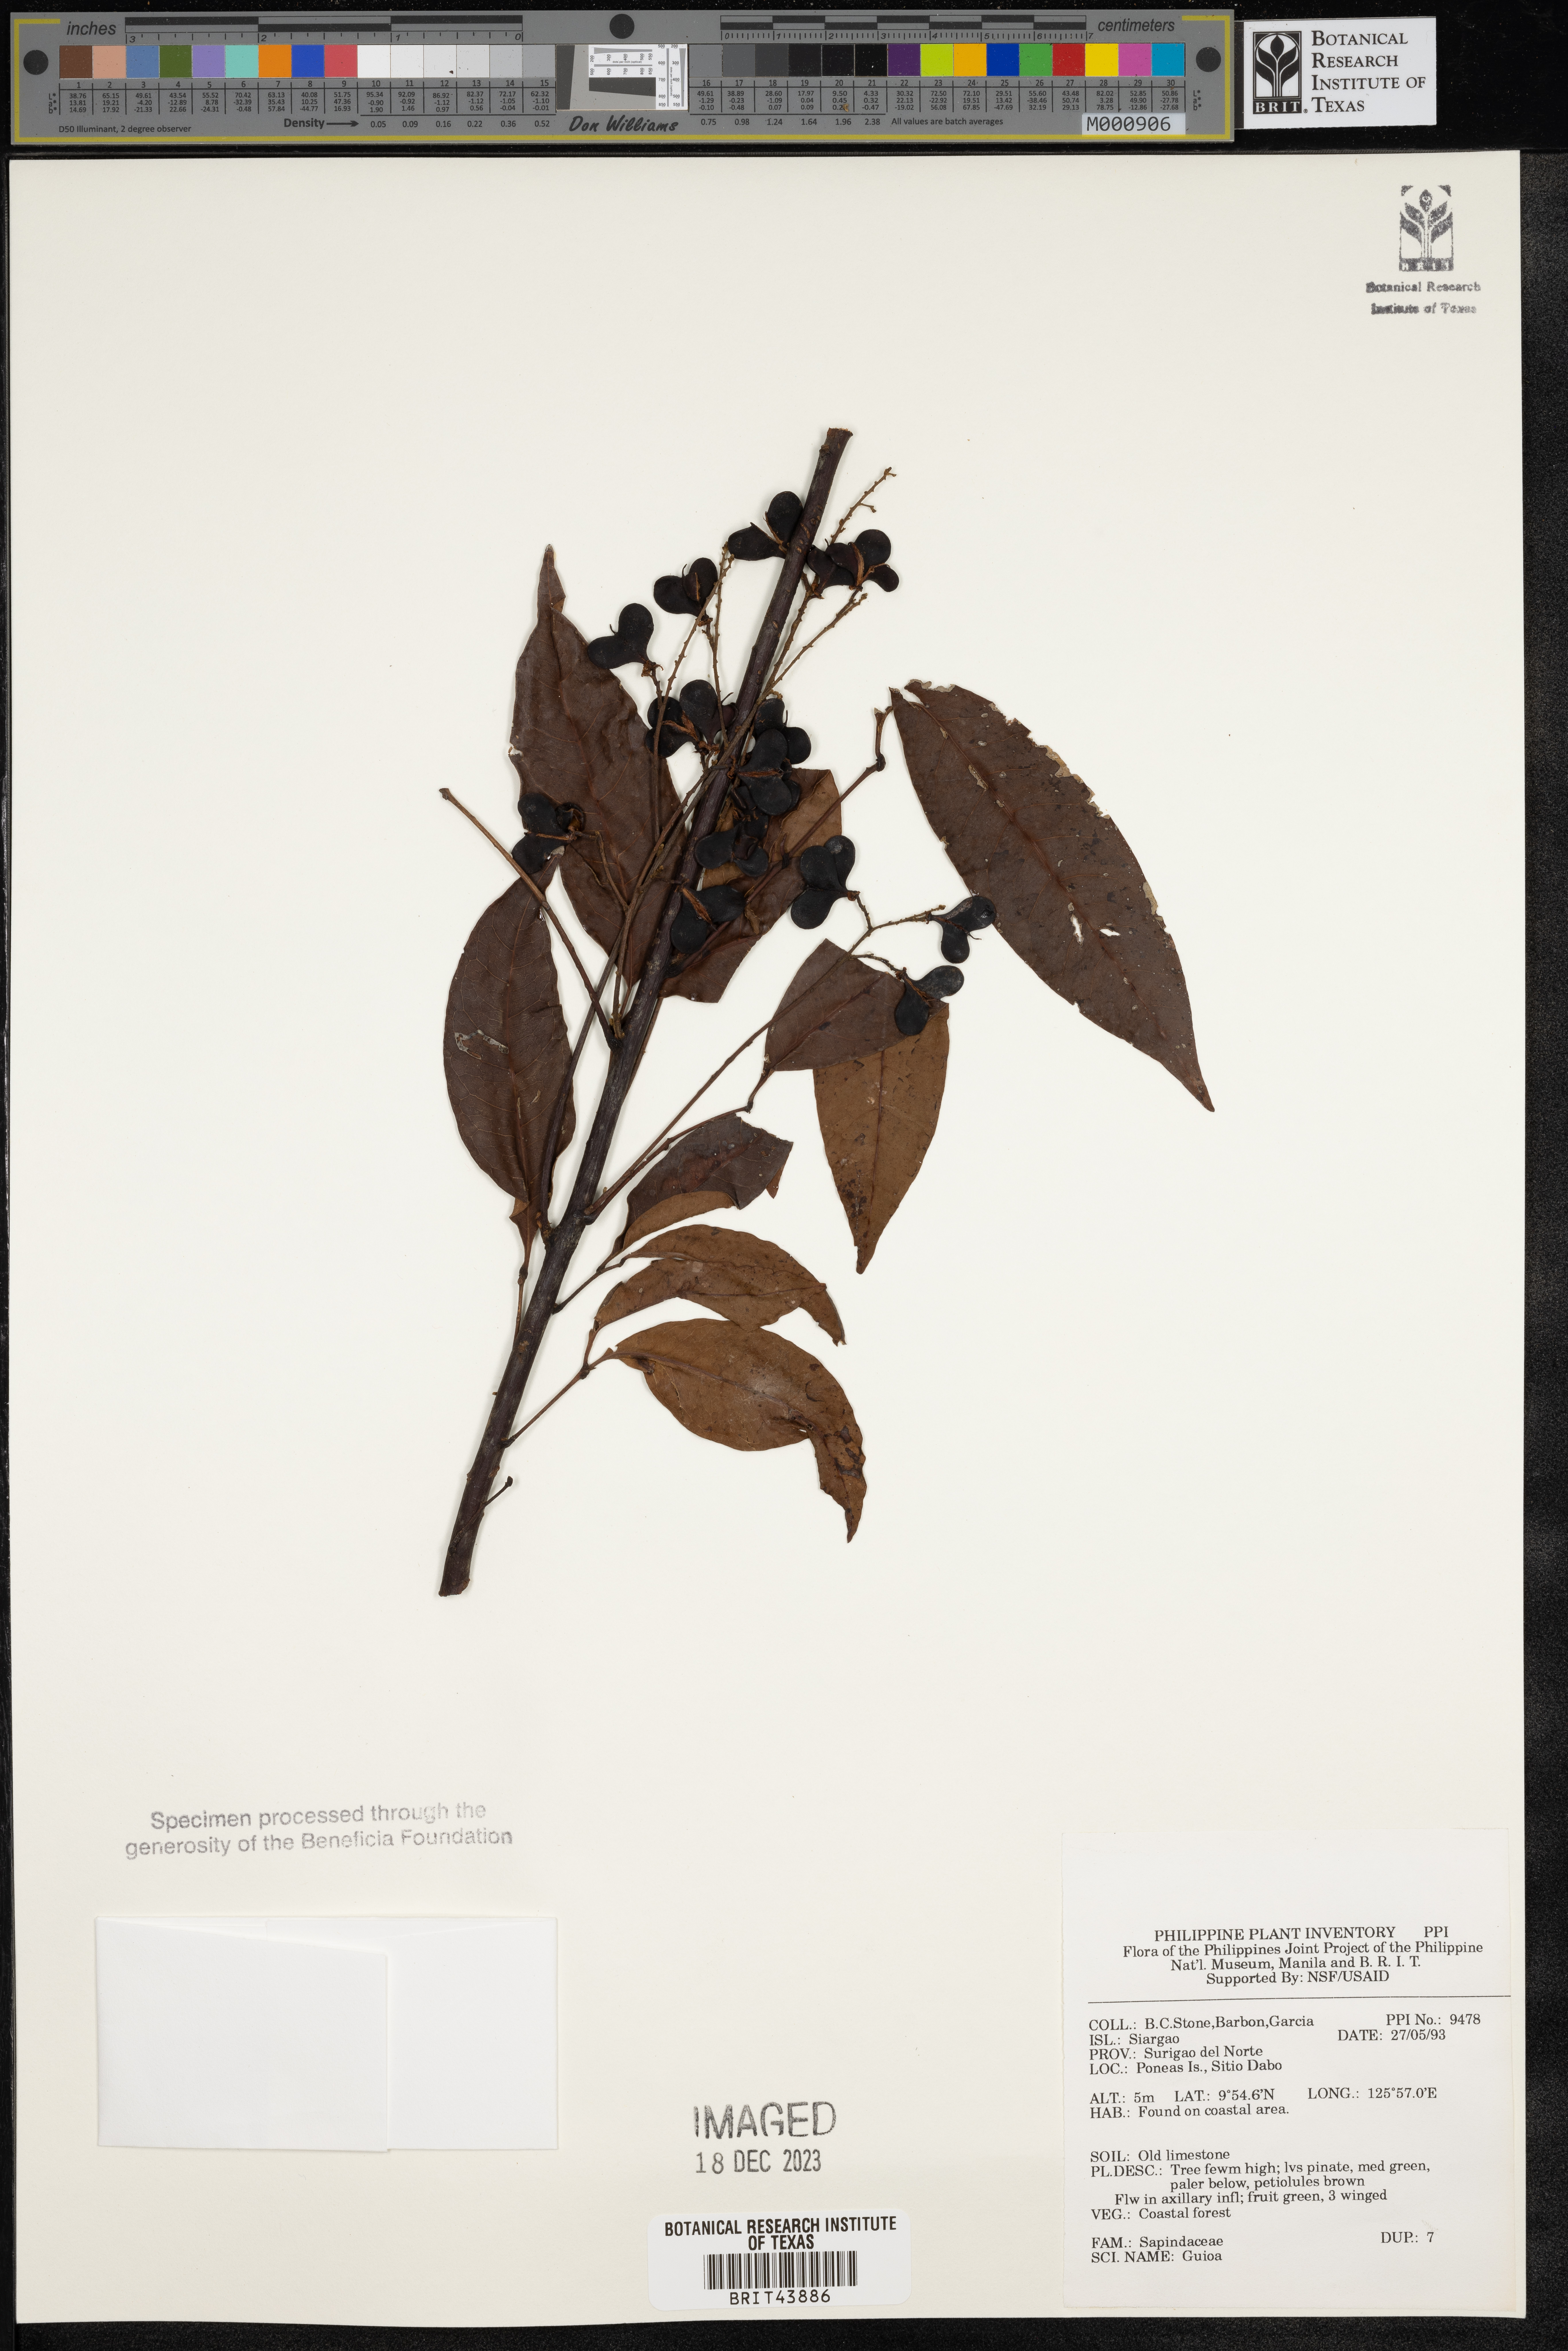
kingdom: Plantae
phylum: Tracheophyta
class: Magnoliopsida
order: Sapindales
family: Sapindaceae
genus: Guioa
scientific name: Guioa
